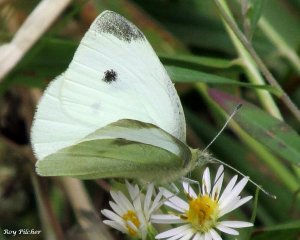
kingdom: Animalia
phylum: Arthropoda
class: Insecta
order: Lepidoptera
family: Pieridae
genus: Pieris
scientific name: Pieris rapae
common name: Cabbage White
